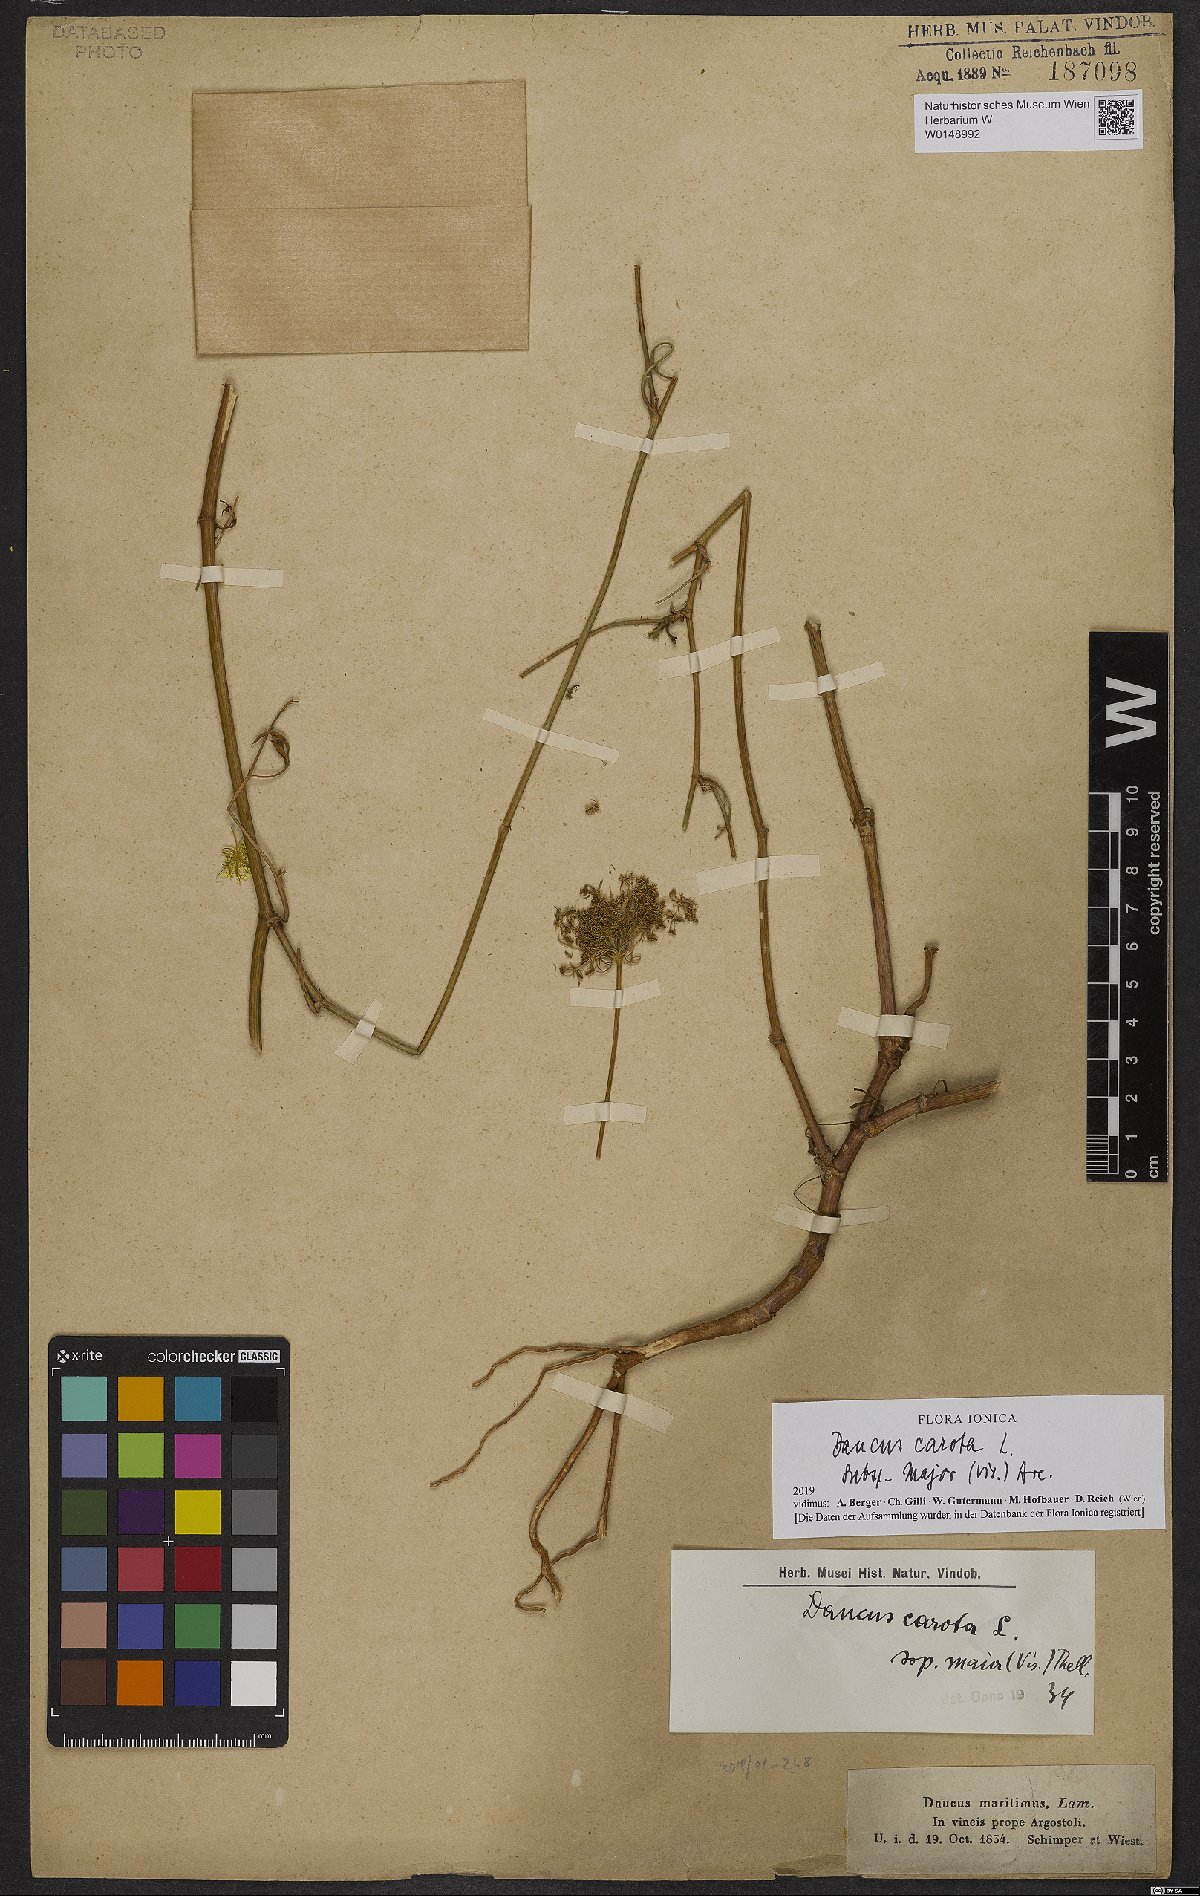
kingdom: Plantae
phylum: Tracheophyta
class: Magnoliopsida
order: Apiales
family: Apiaceae
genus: Daucus
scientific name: Daucus carota
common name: Wild carrot
